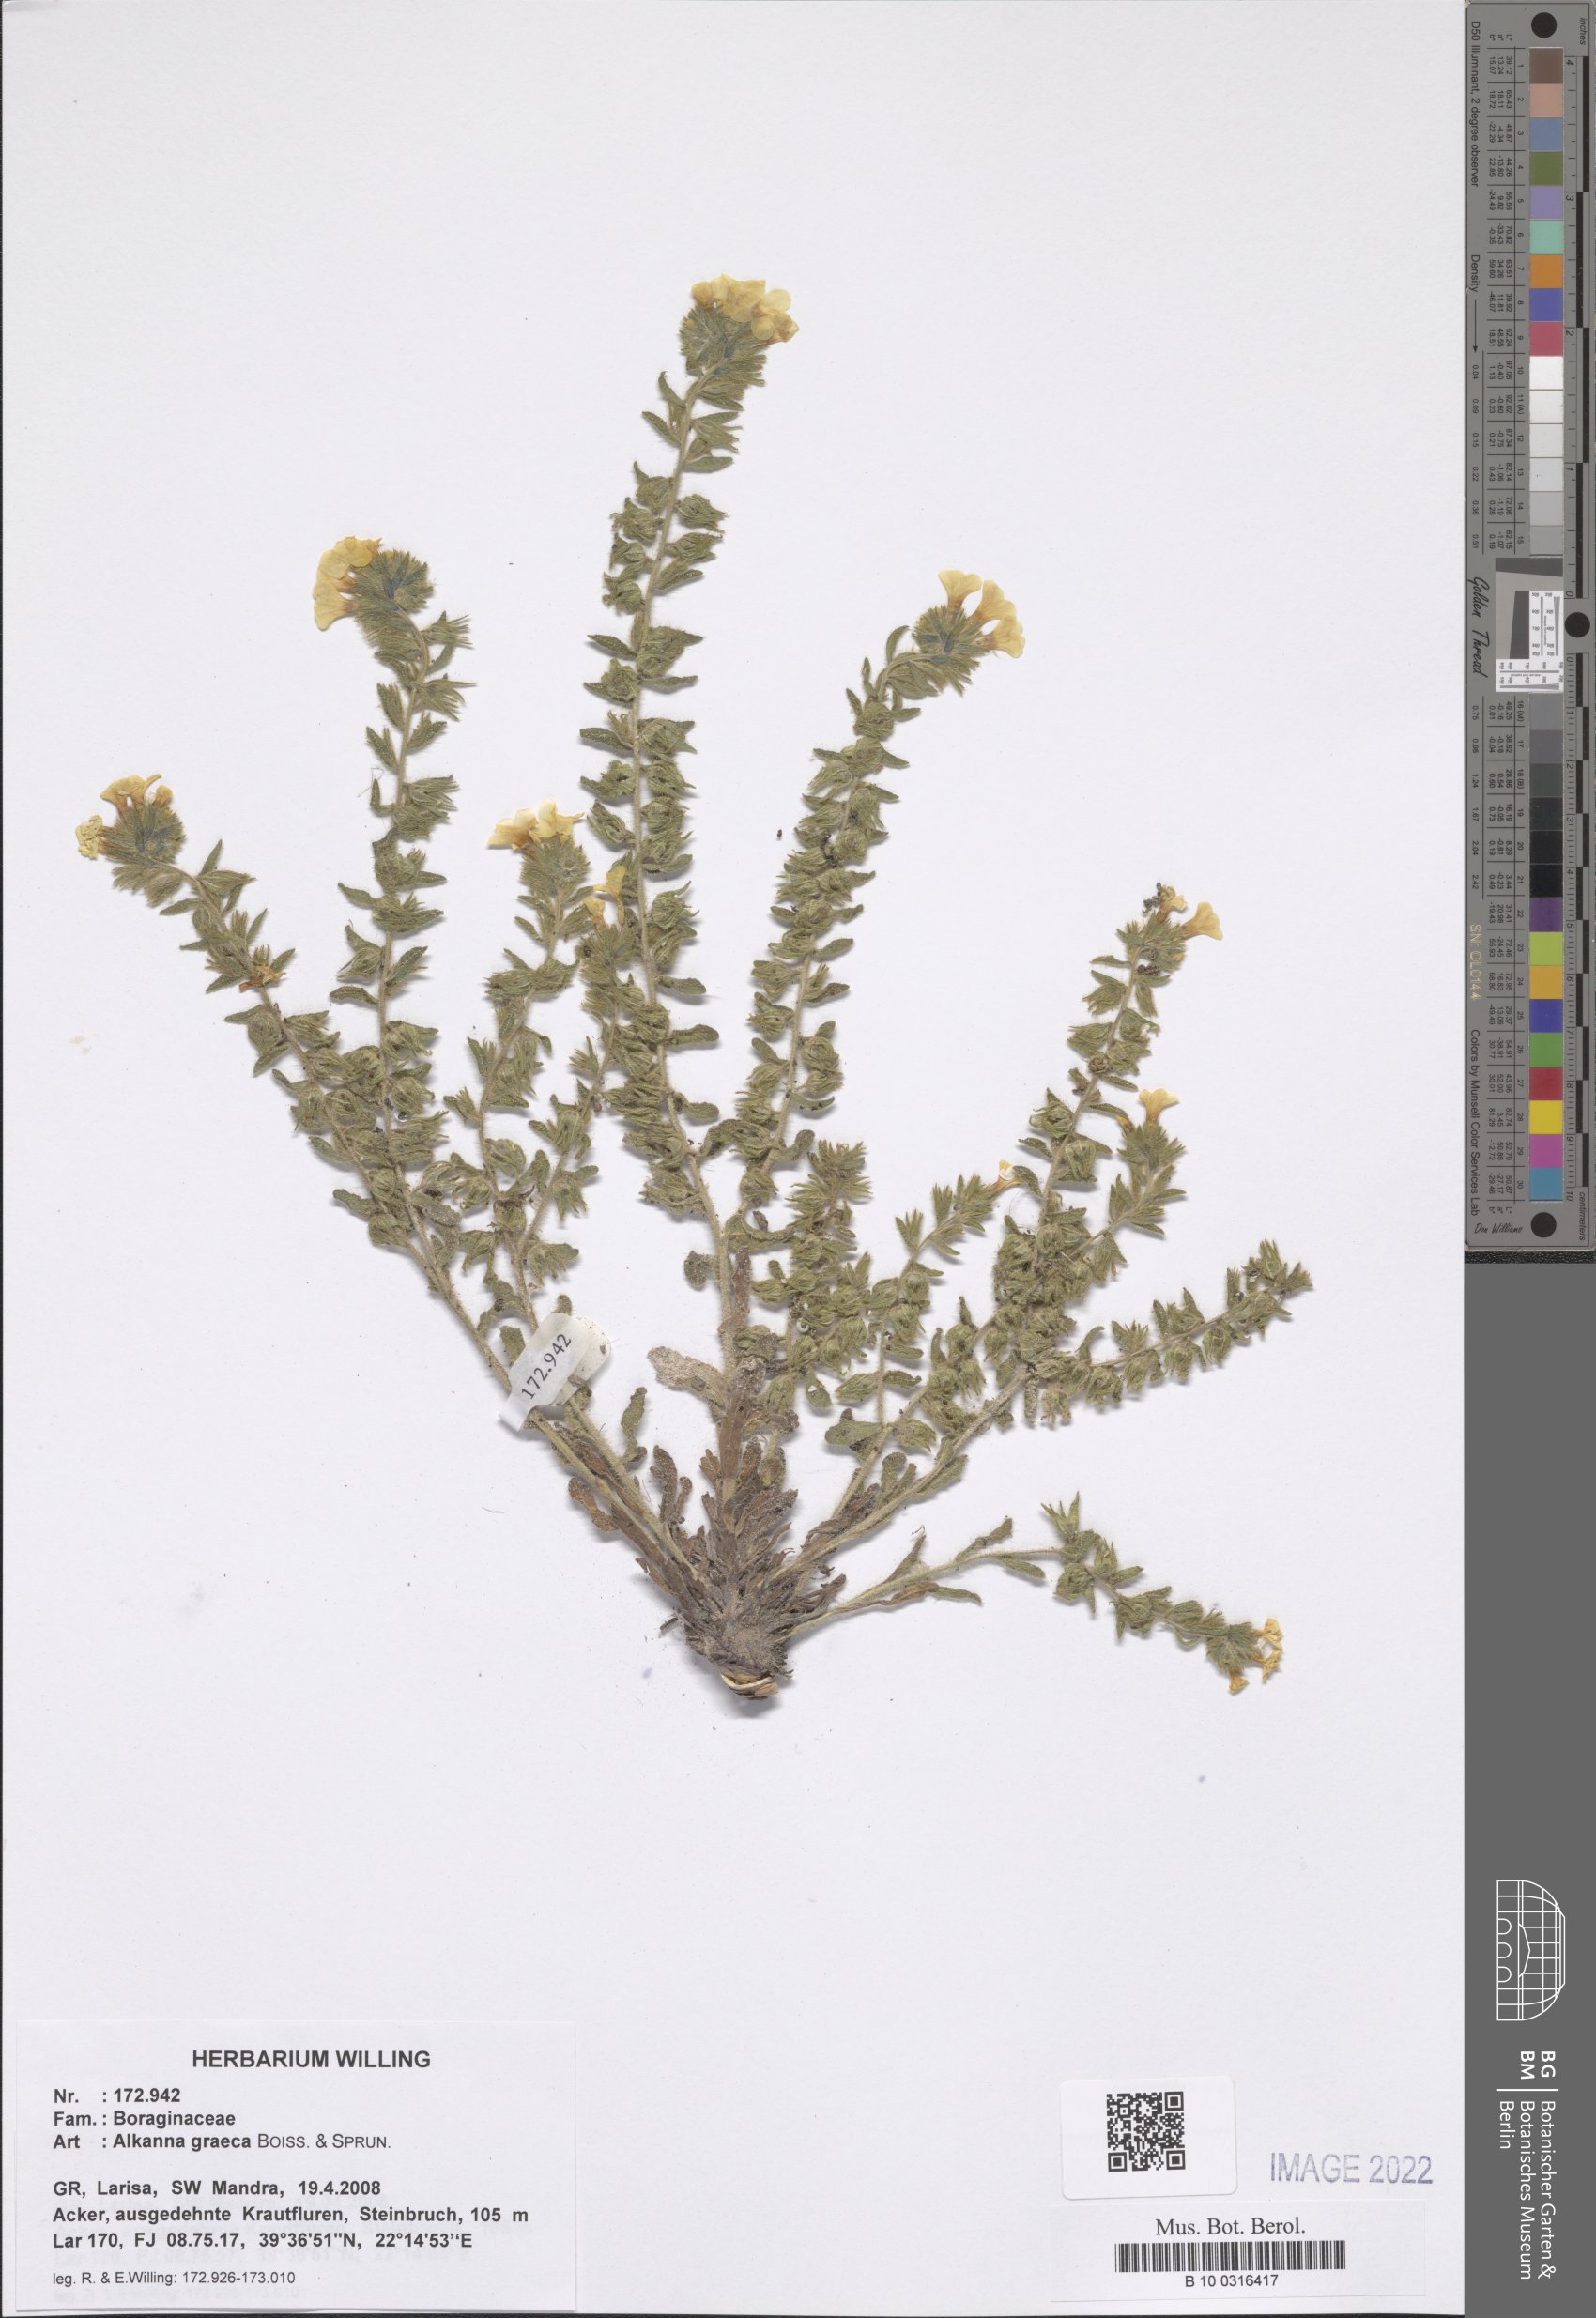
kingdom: Plantae
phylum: Tracheophyta
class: Magnoliopsida
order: Boraginales
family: Boraginaceae
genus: Alkanna
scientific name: Alkanna graeca
